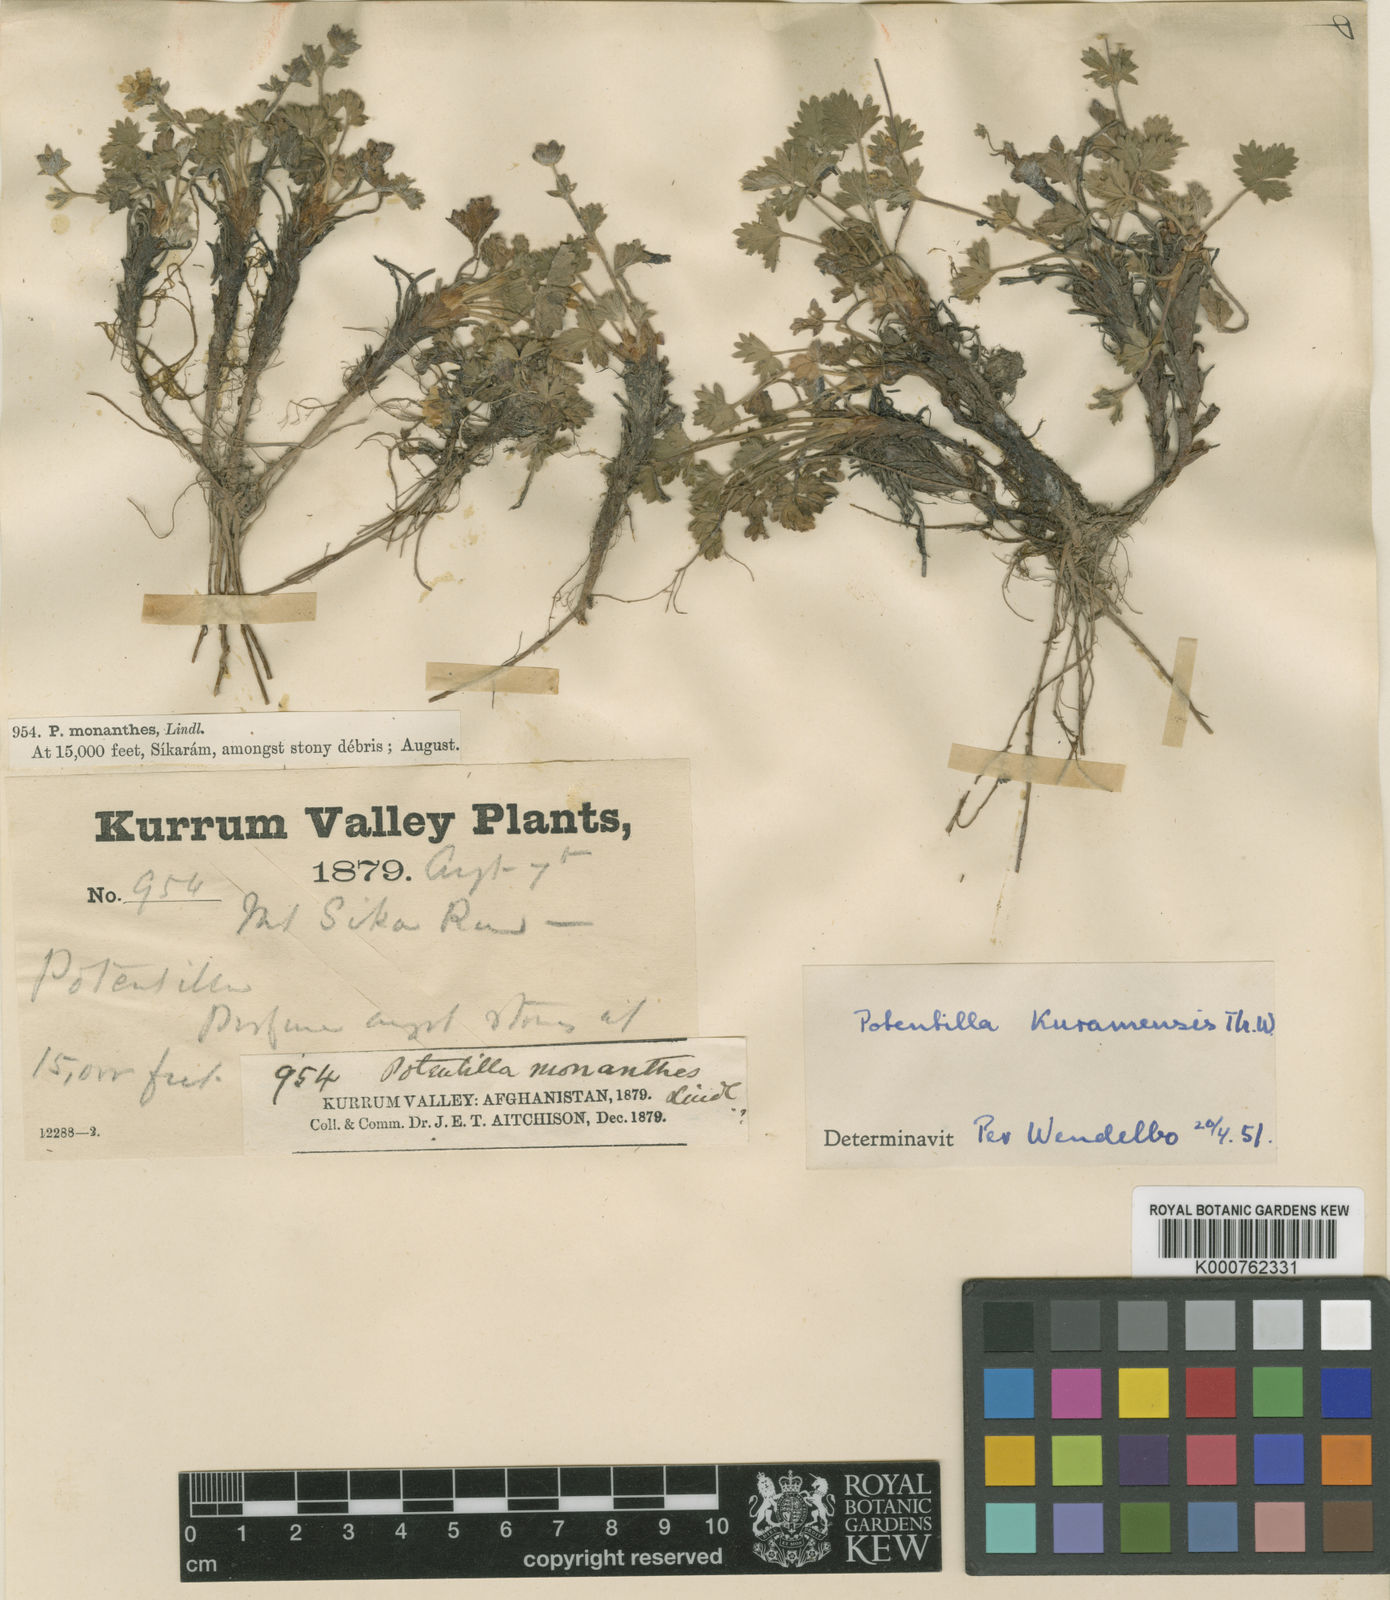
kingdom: Plantae
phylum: Tracheophyta
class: Magnoliopsida
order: Rosales
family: Rosaceae
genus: Potentilla
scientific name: Potentilla nordmanniana
